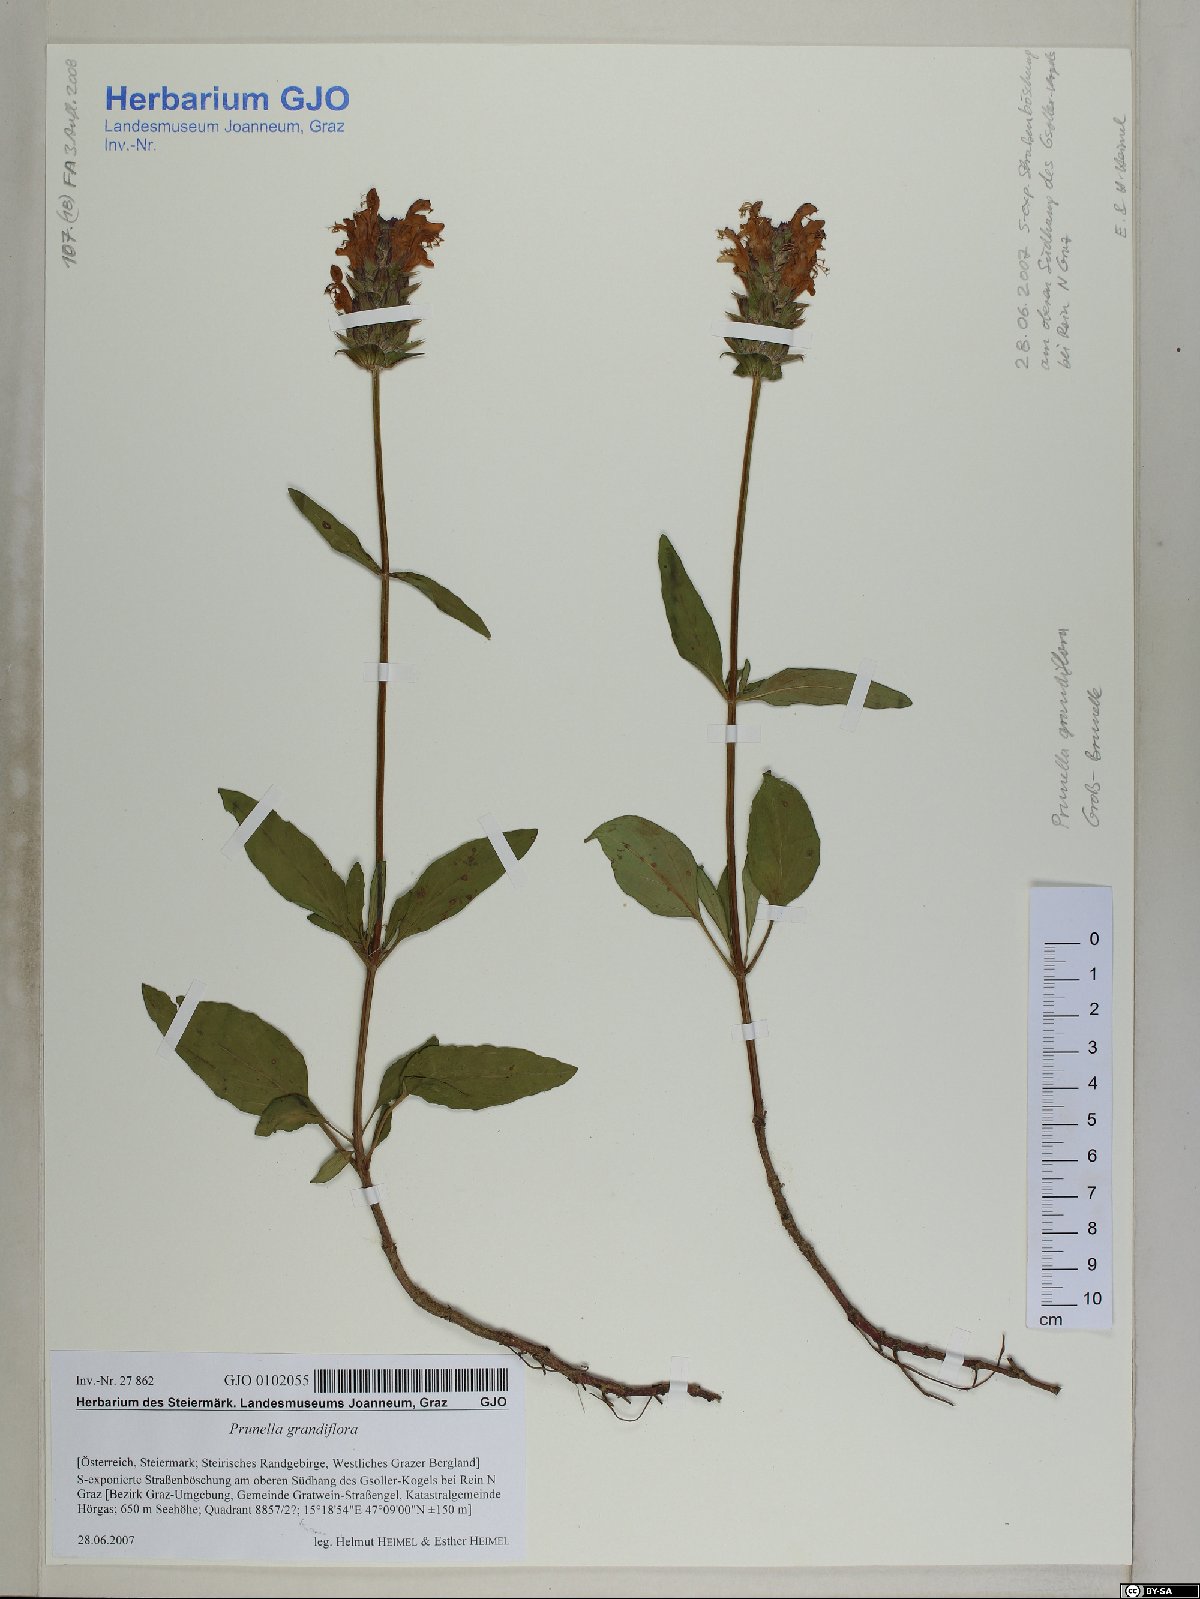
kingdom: Plantae
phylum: Tracheophyta
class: Magnoliopsida
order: Lamiales
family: Lamiaceae
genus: Prunella
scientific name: Prunella grandiflora
